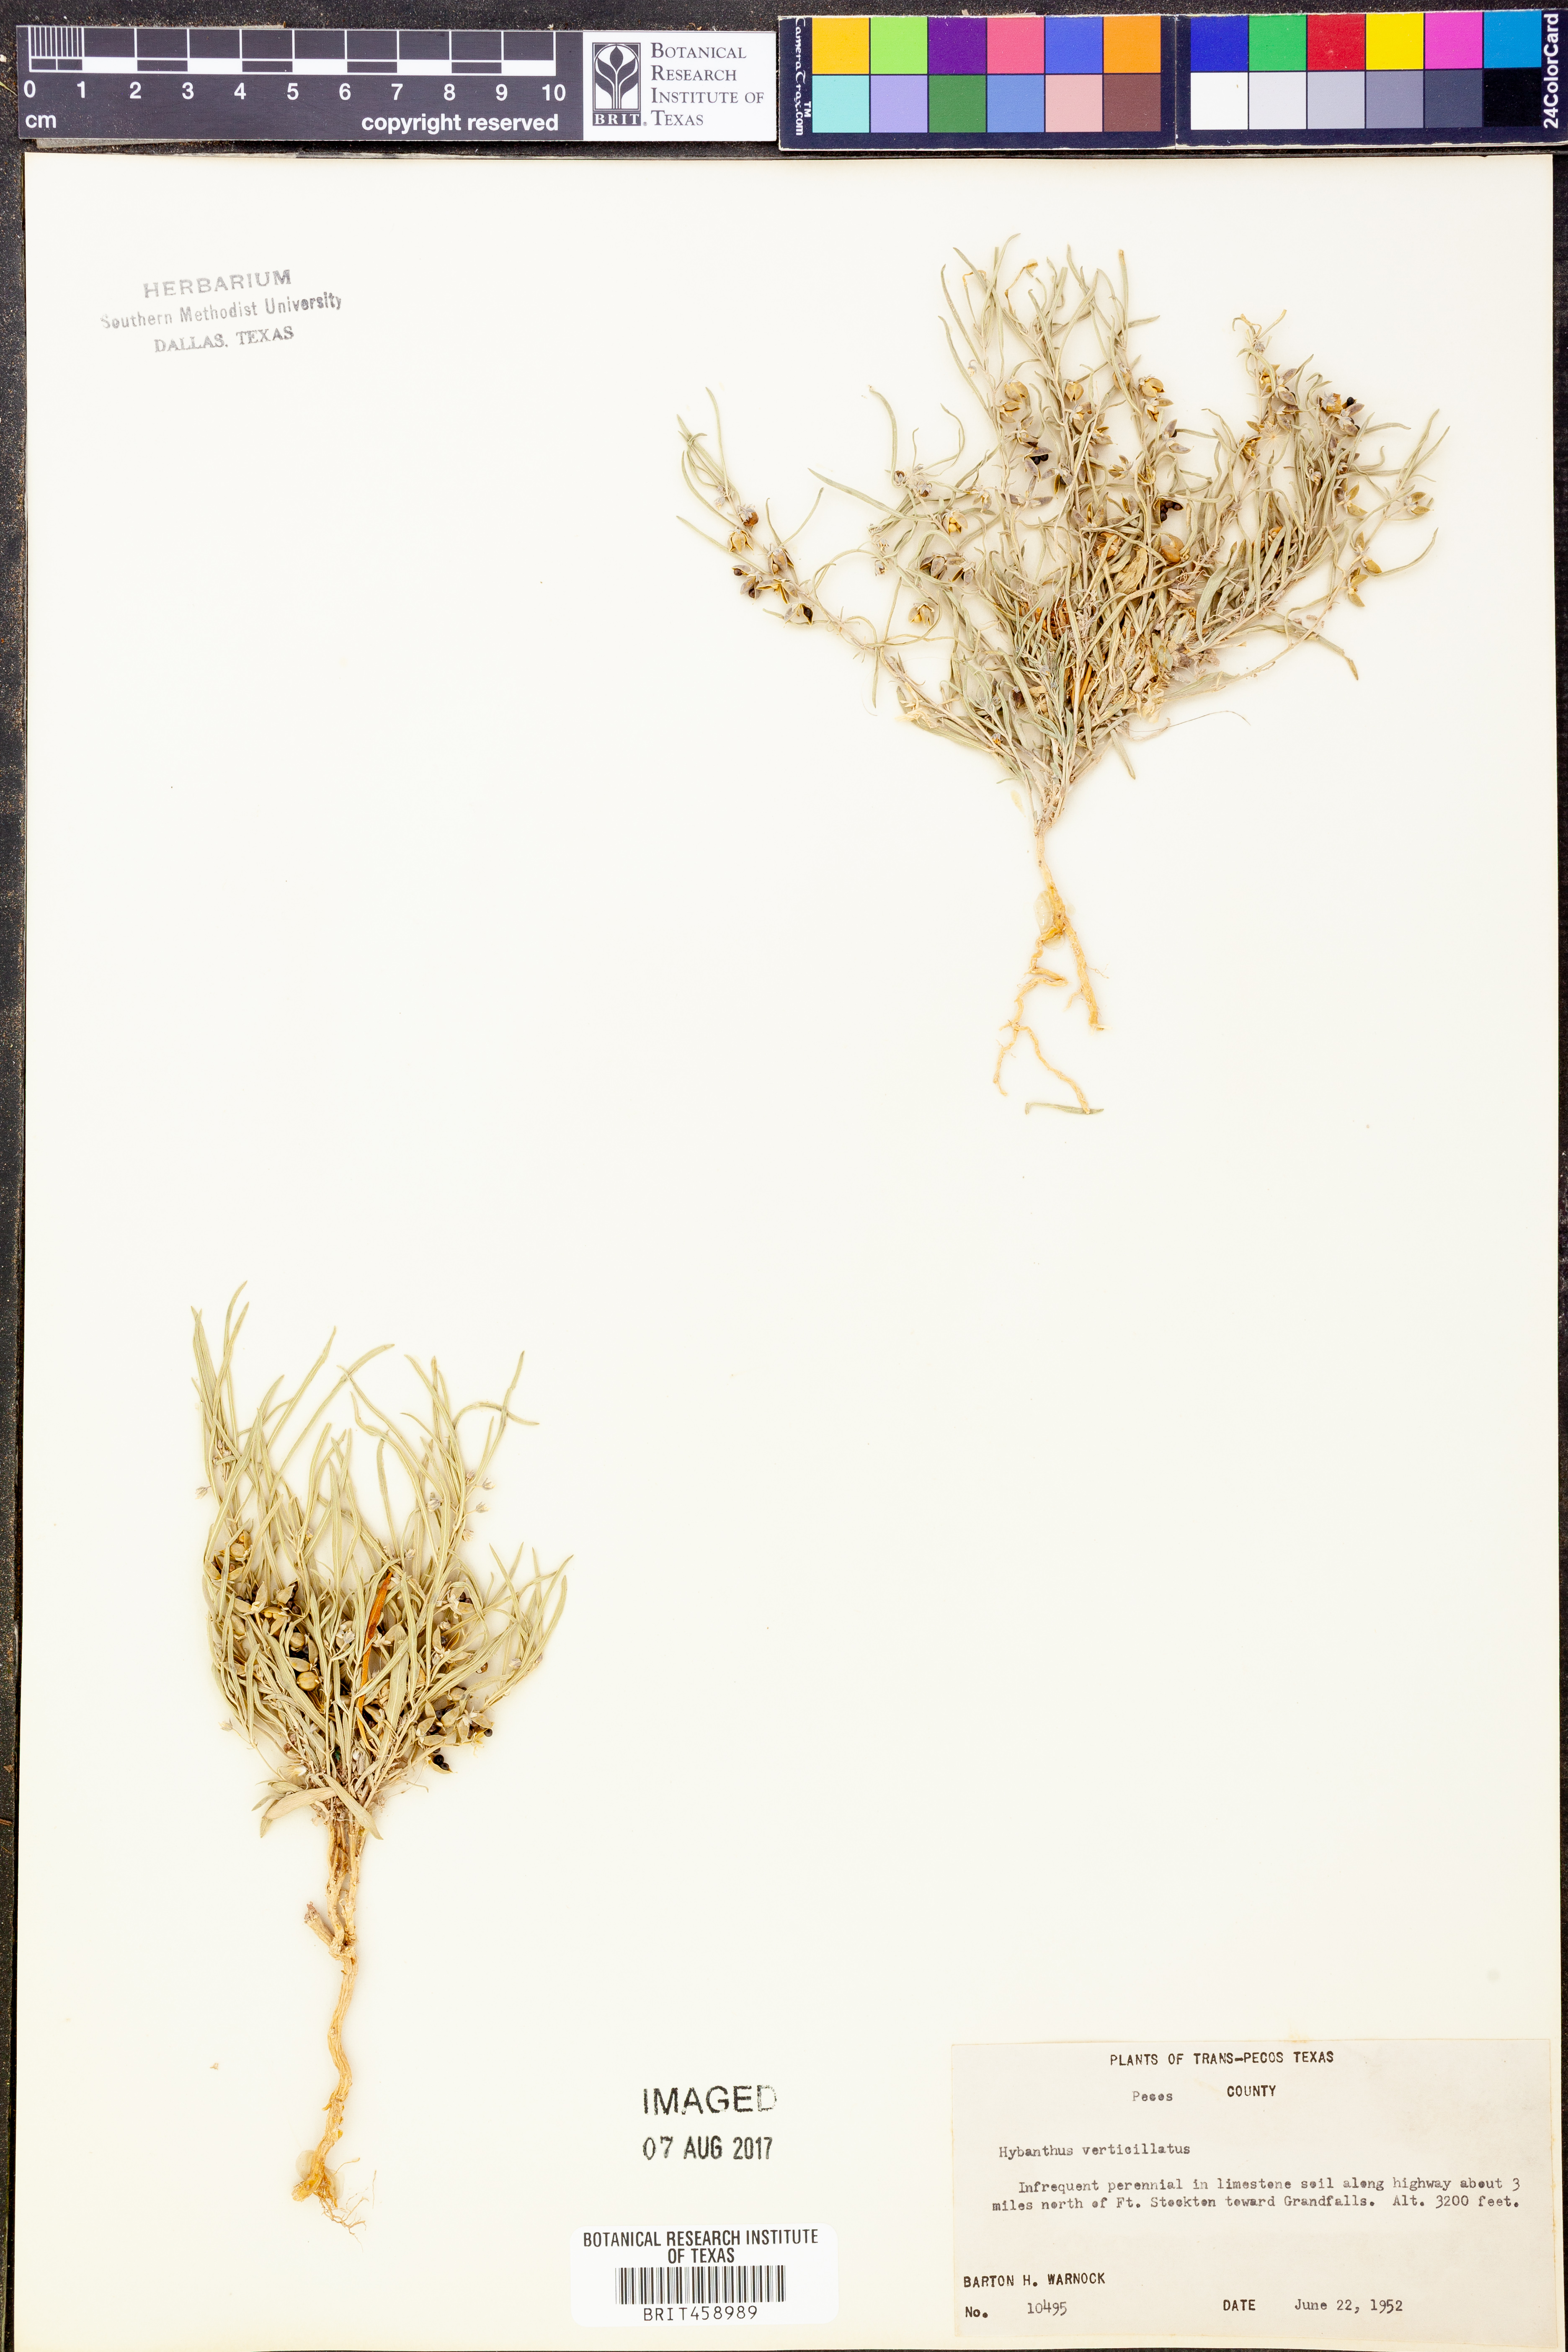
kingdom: Plantae
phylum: Tracheophyta
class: Magnoliopsida
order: Malpighiales
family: Violaceae
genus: Pombalia
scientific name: Pombalia verticillata
